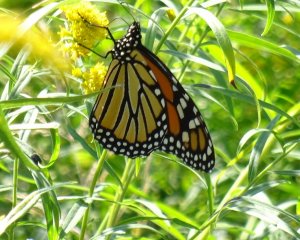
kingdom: Animalia
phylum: Arthropoda
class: Insecta
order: Lepidoptera
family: Nymphalidae
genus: Danaus
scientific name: Danaus plexippus
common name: Monarch
